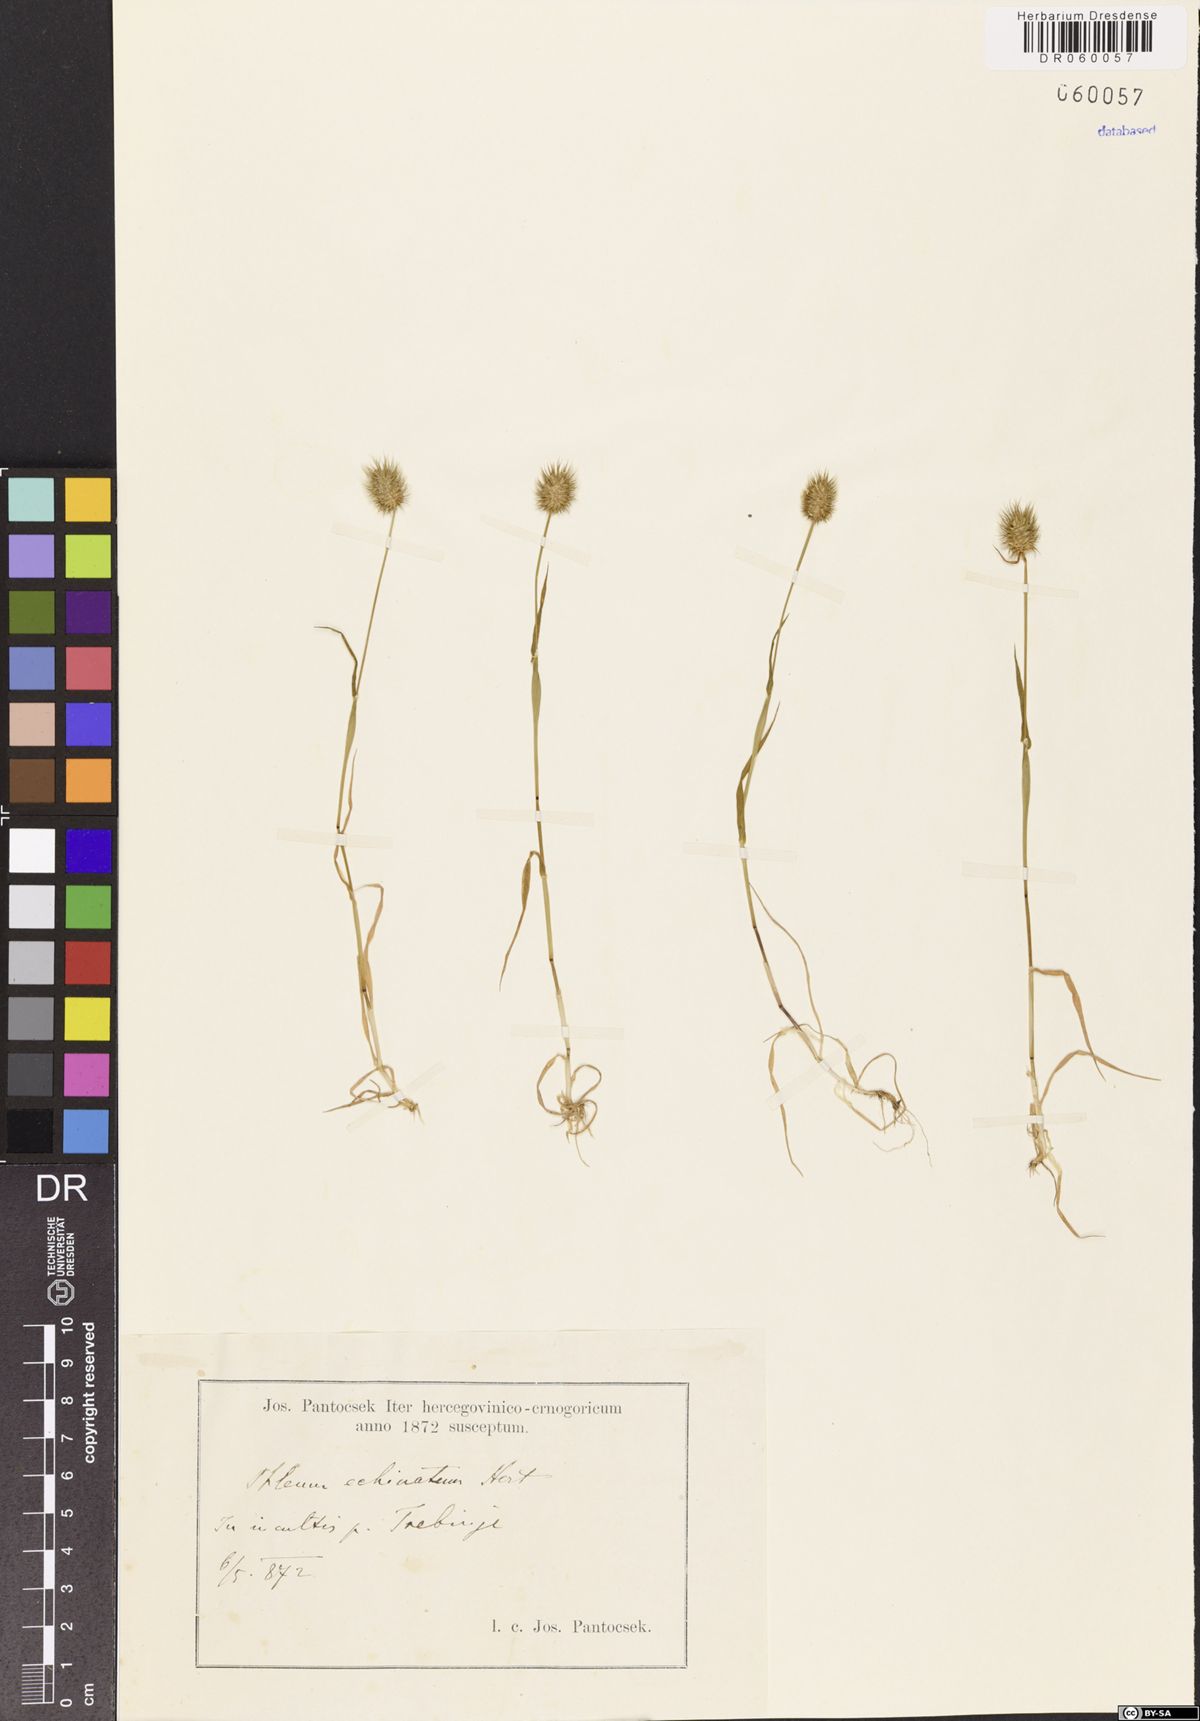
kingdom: Plantae
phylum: Tracheophyta
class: Liliopsida
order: Poales
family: Poaceae
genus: Phleum
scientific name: Phleum echinatum
